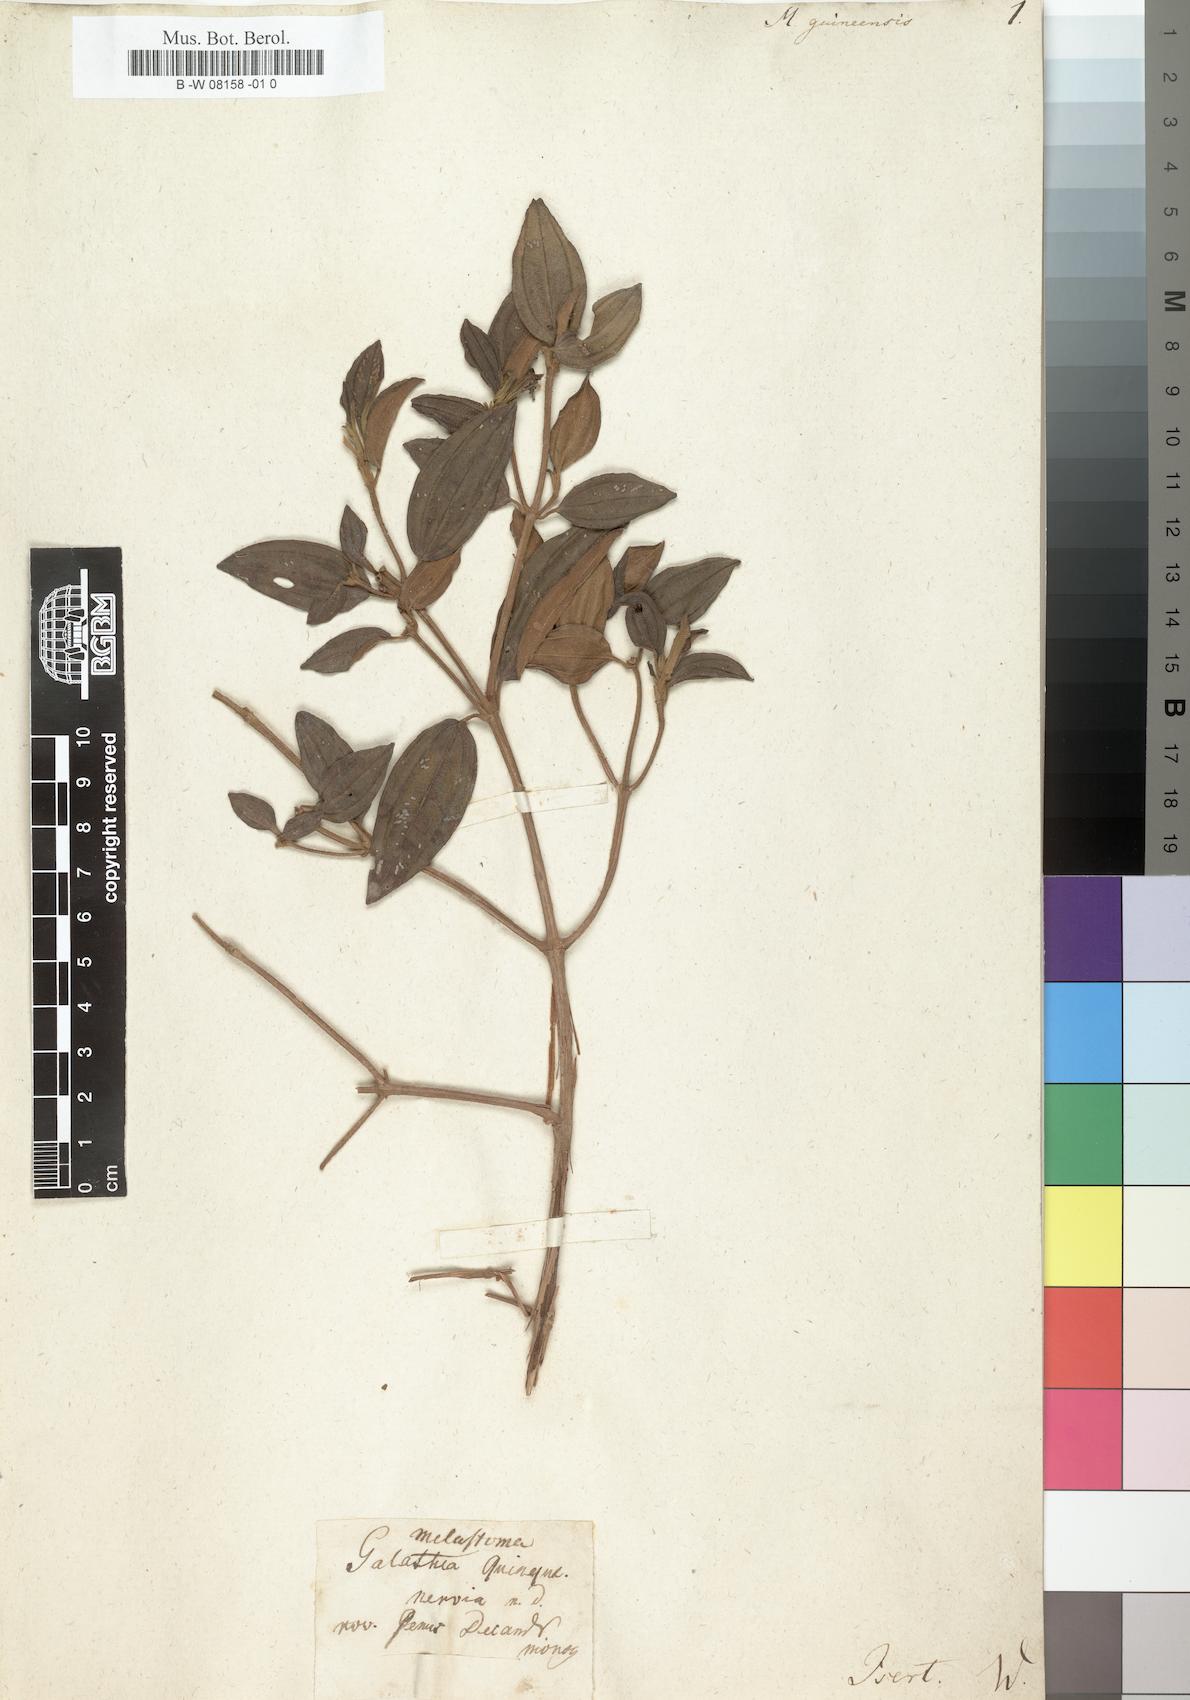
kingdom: Plantae
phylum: Tracheophyta
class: Magnoliopsida
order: Myrtales
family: Melastomataceae
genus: Meriania
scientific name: Meriania
